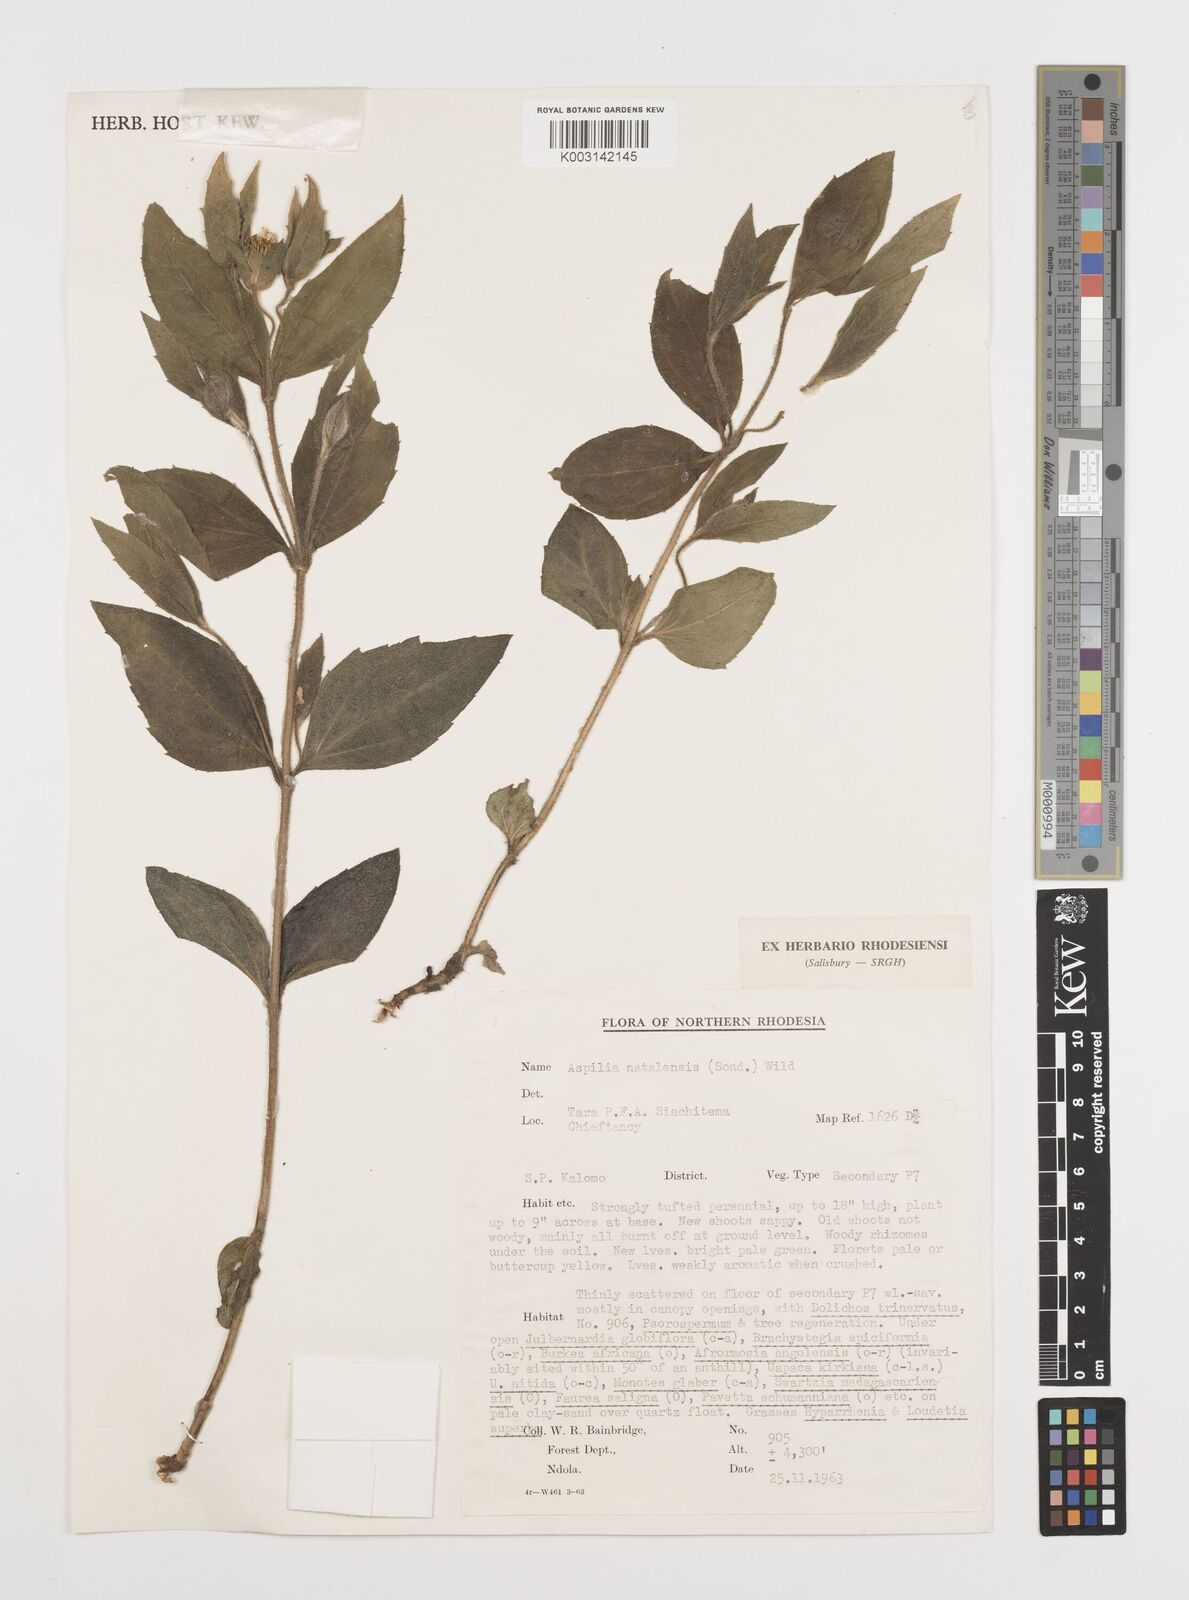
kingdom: Plantae
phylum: Tracheophyta
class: Magnoliopsida
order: Asterales
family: Asteraceae
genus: Aspilia
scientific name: Aspilia natalensis
